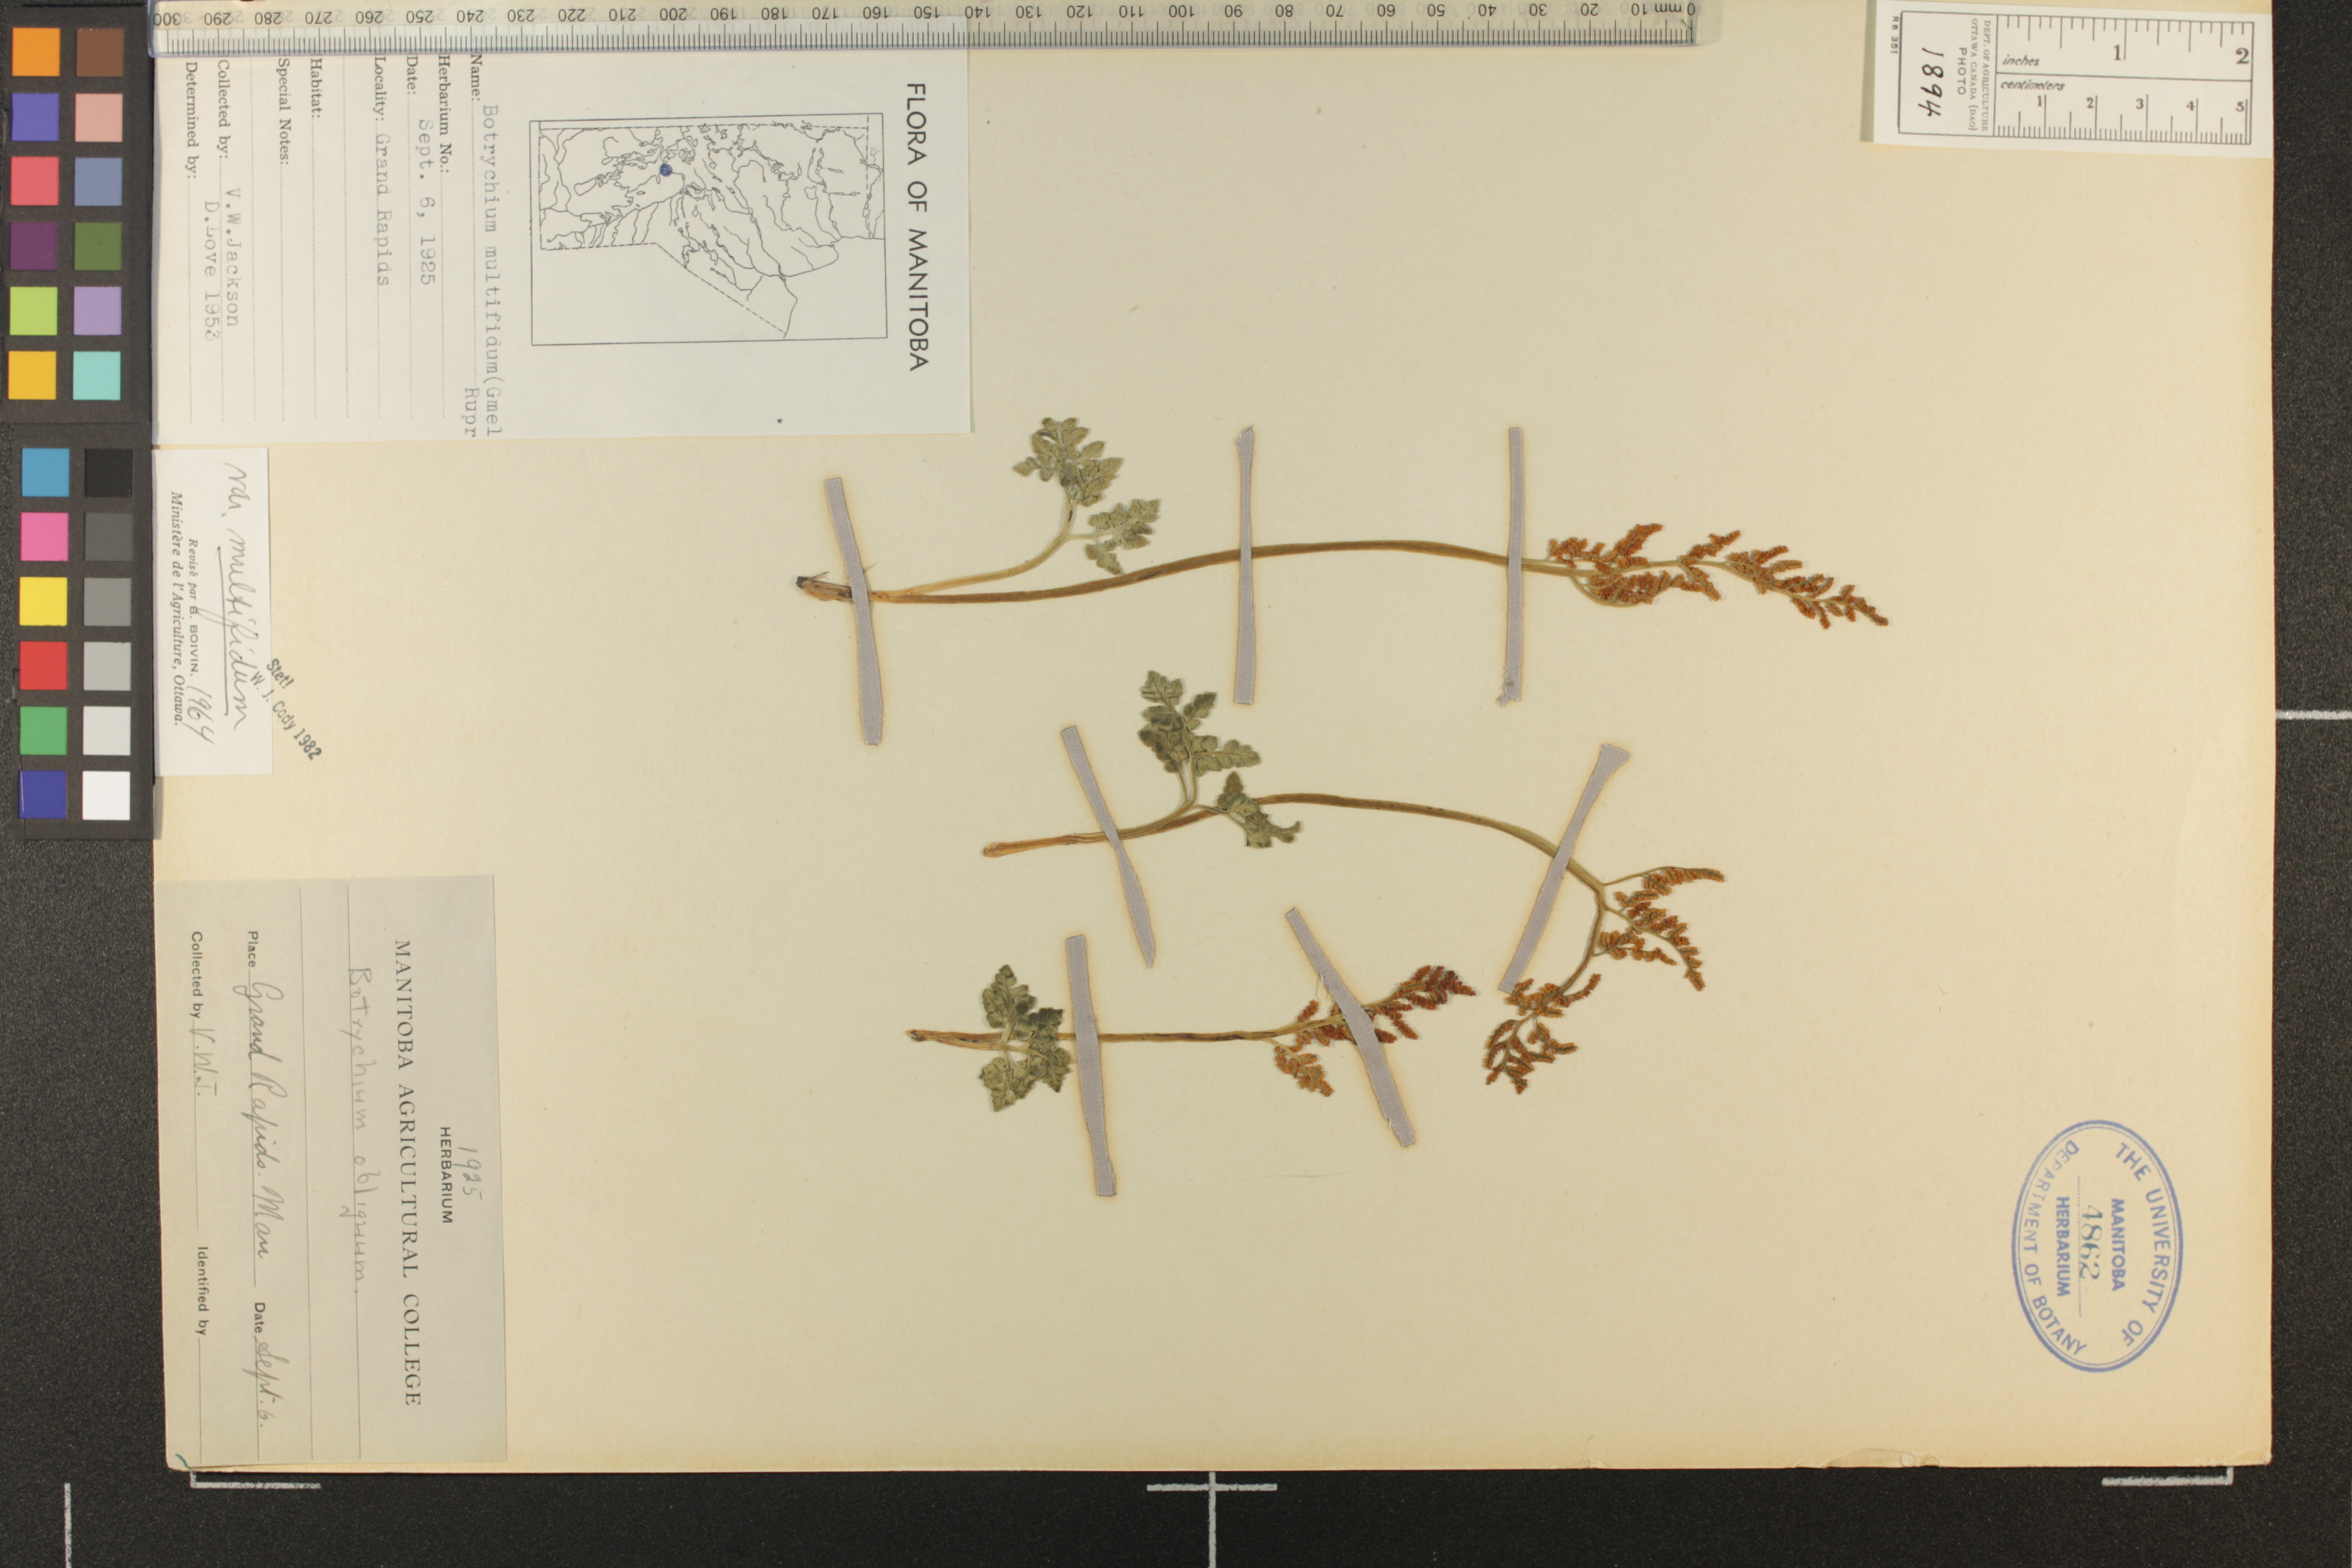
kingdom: Plantae
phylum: Tracheophyta
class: Polypodiopsida
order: Ophioglossales
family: Ophioglossaceae
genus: Sceptridium
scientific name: Sceptridium multifidum
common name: Leathery grape fern
